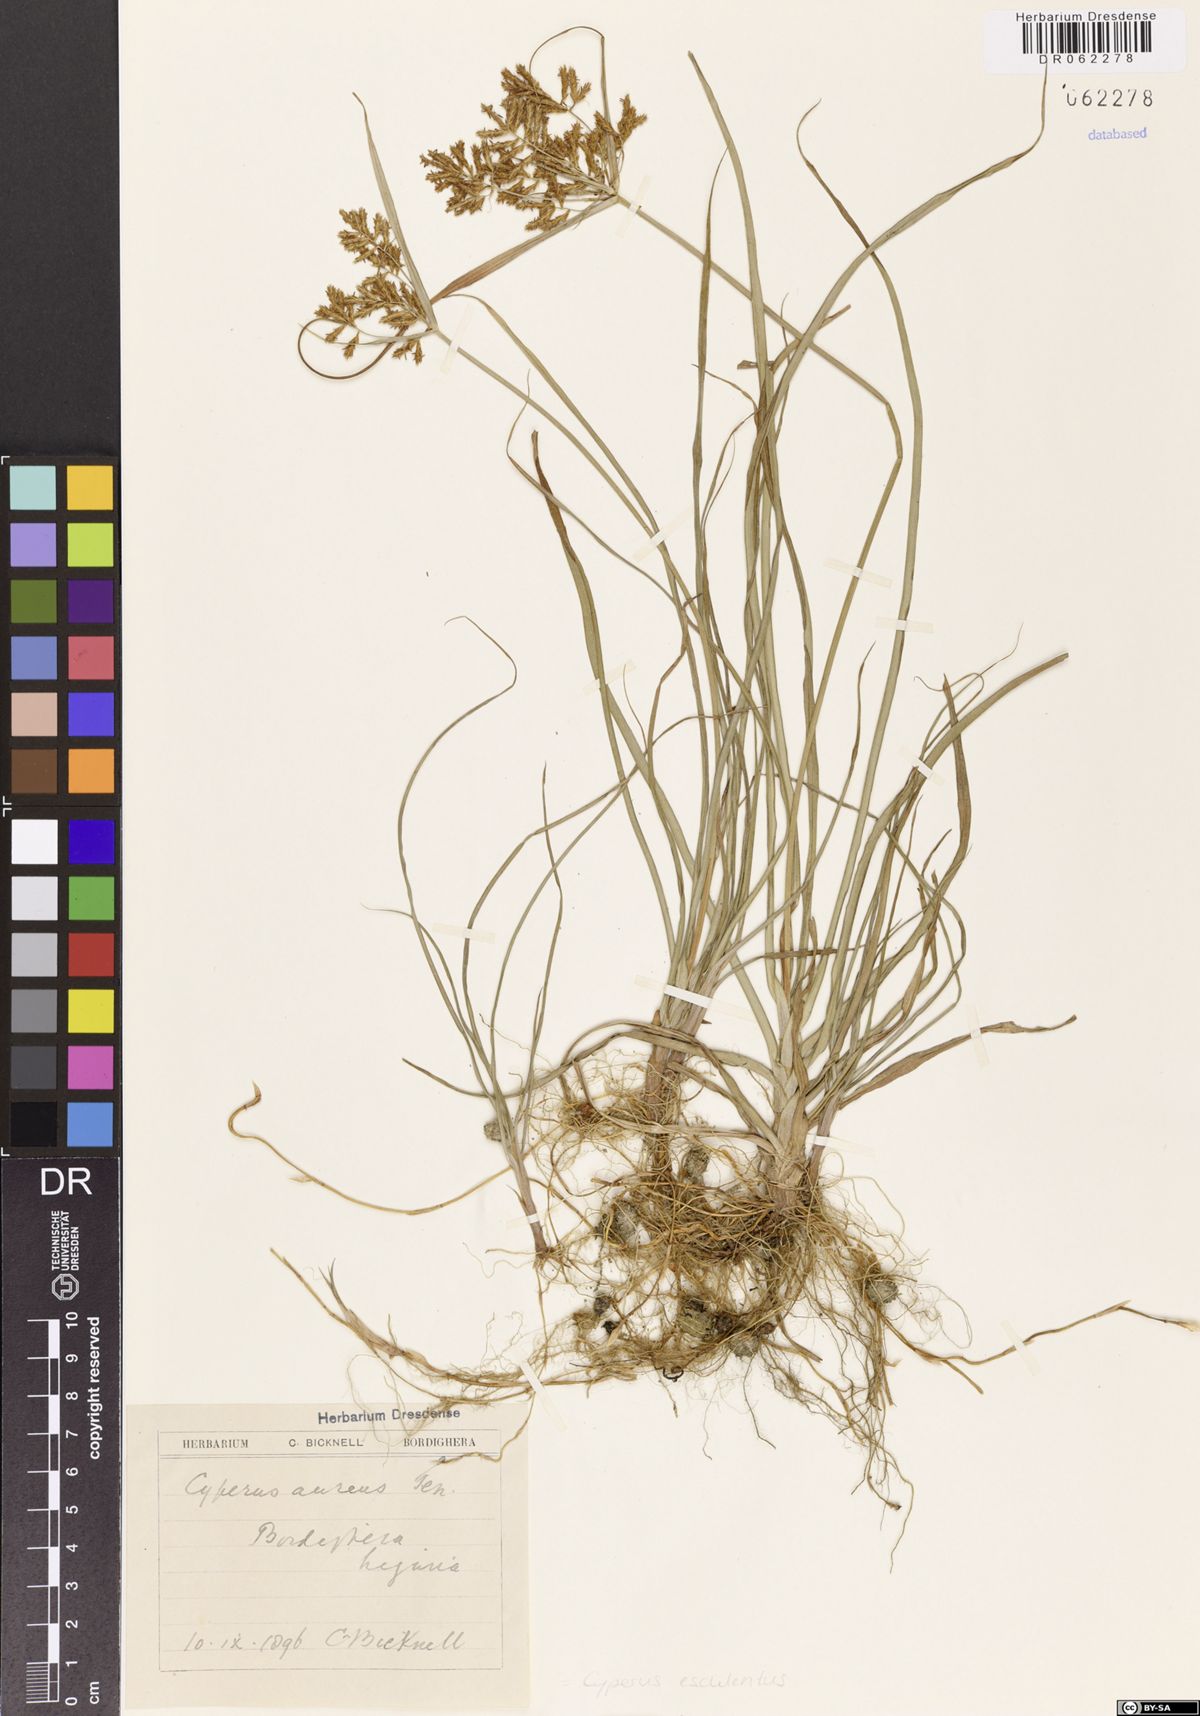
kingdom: Plantae
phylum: Tracheophyta
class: Liliopsida
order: Poales
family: Cyperaceae
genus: Cyperus
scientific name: Cyperus esculentus
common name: Yellow nutsedge
